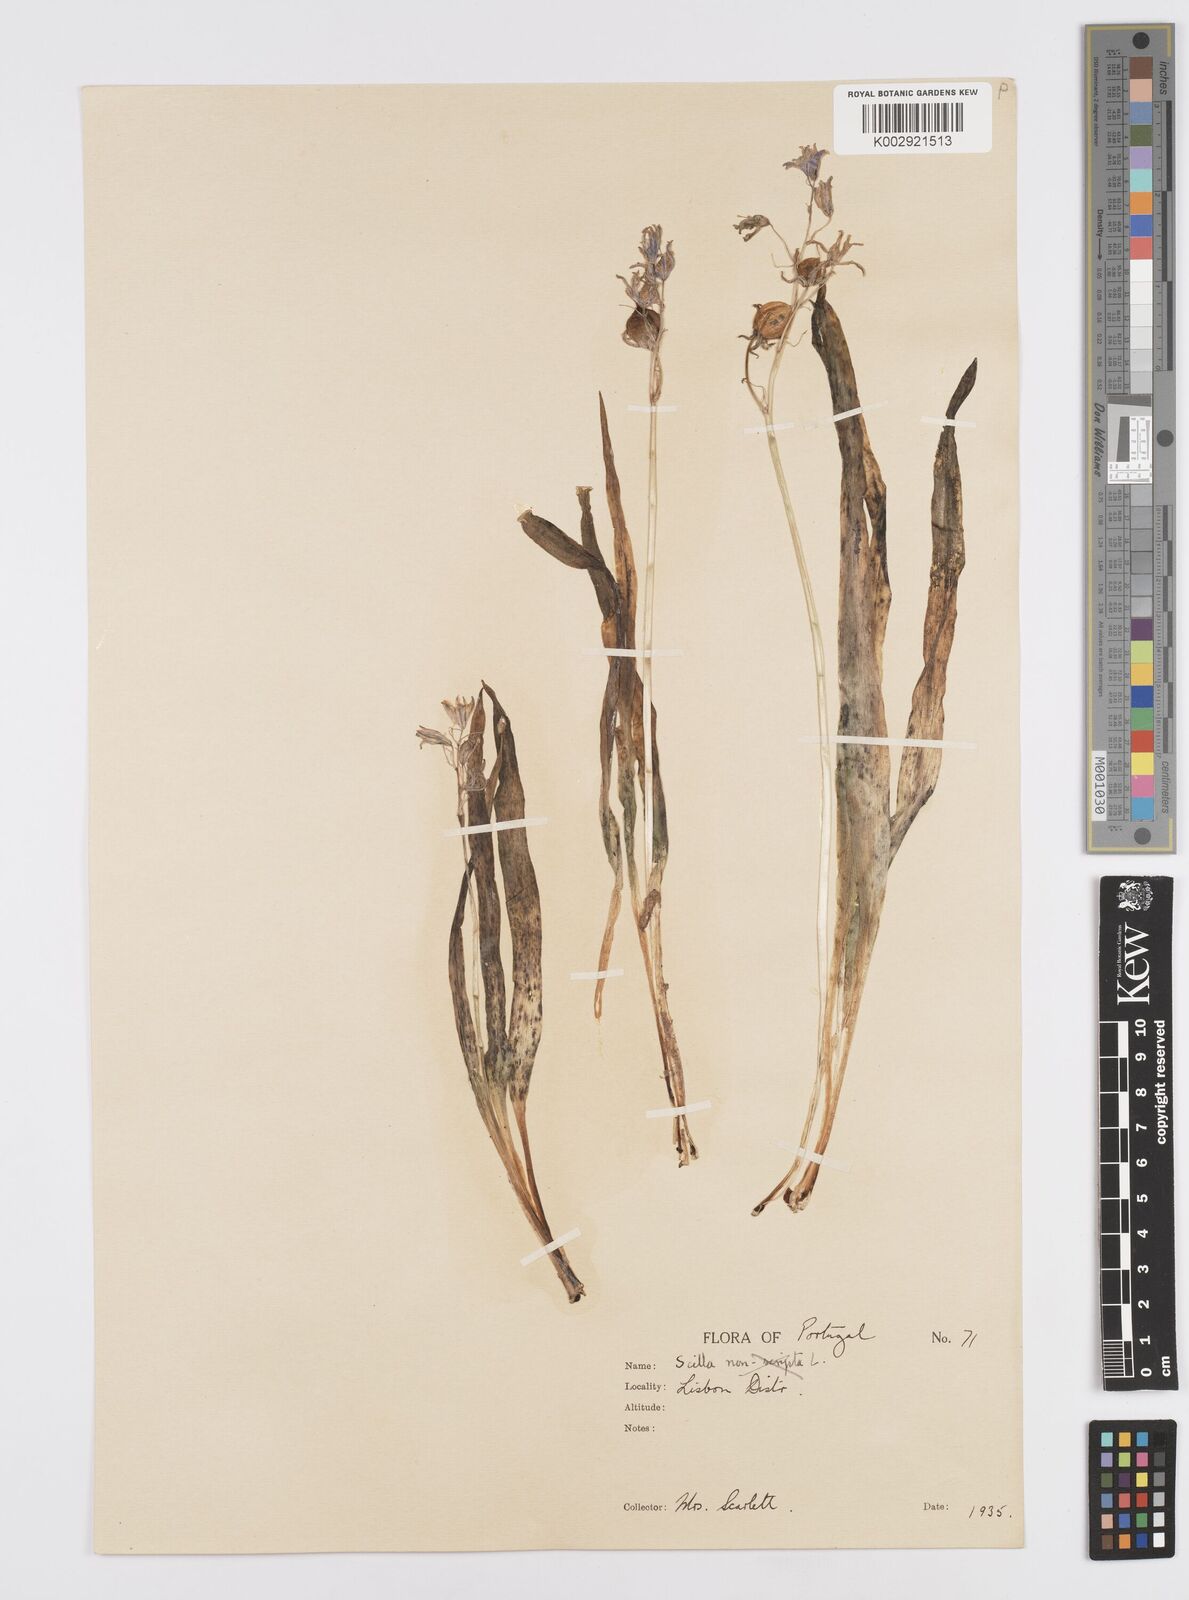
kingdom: Plantae
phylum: Tracheophyta
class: Liliopsida
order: Asparagales
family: Asparagaceae
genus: Hyacinthoides
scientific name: Hyacinthoides hispanica
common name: Spanish bluebell
